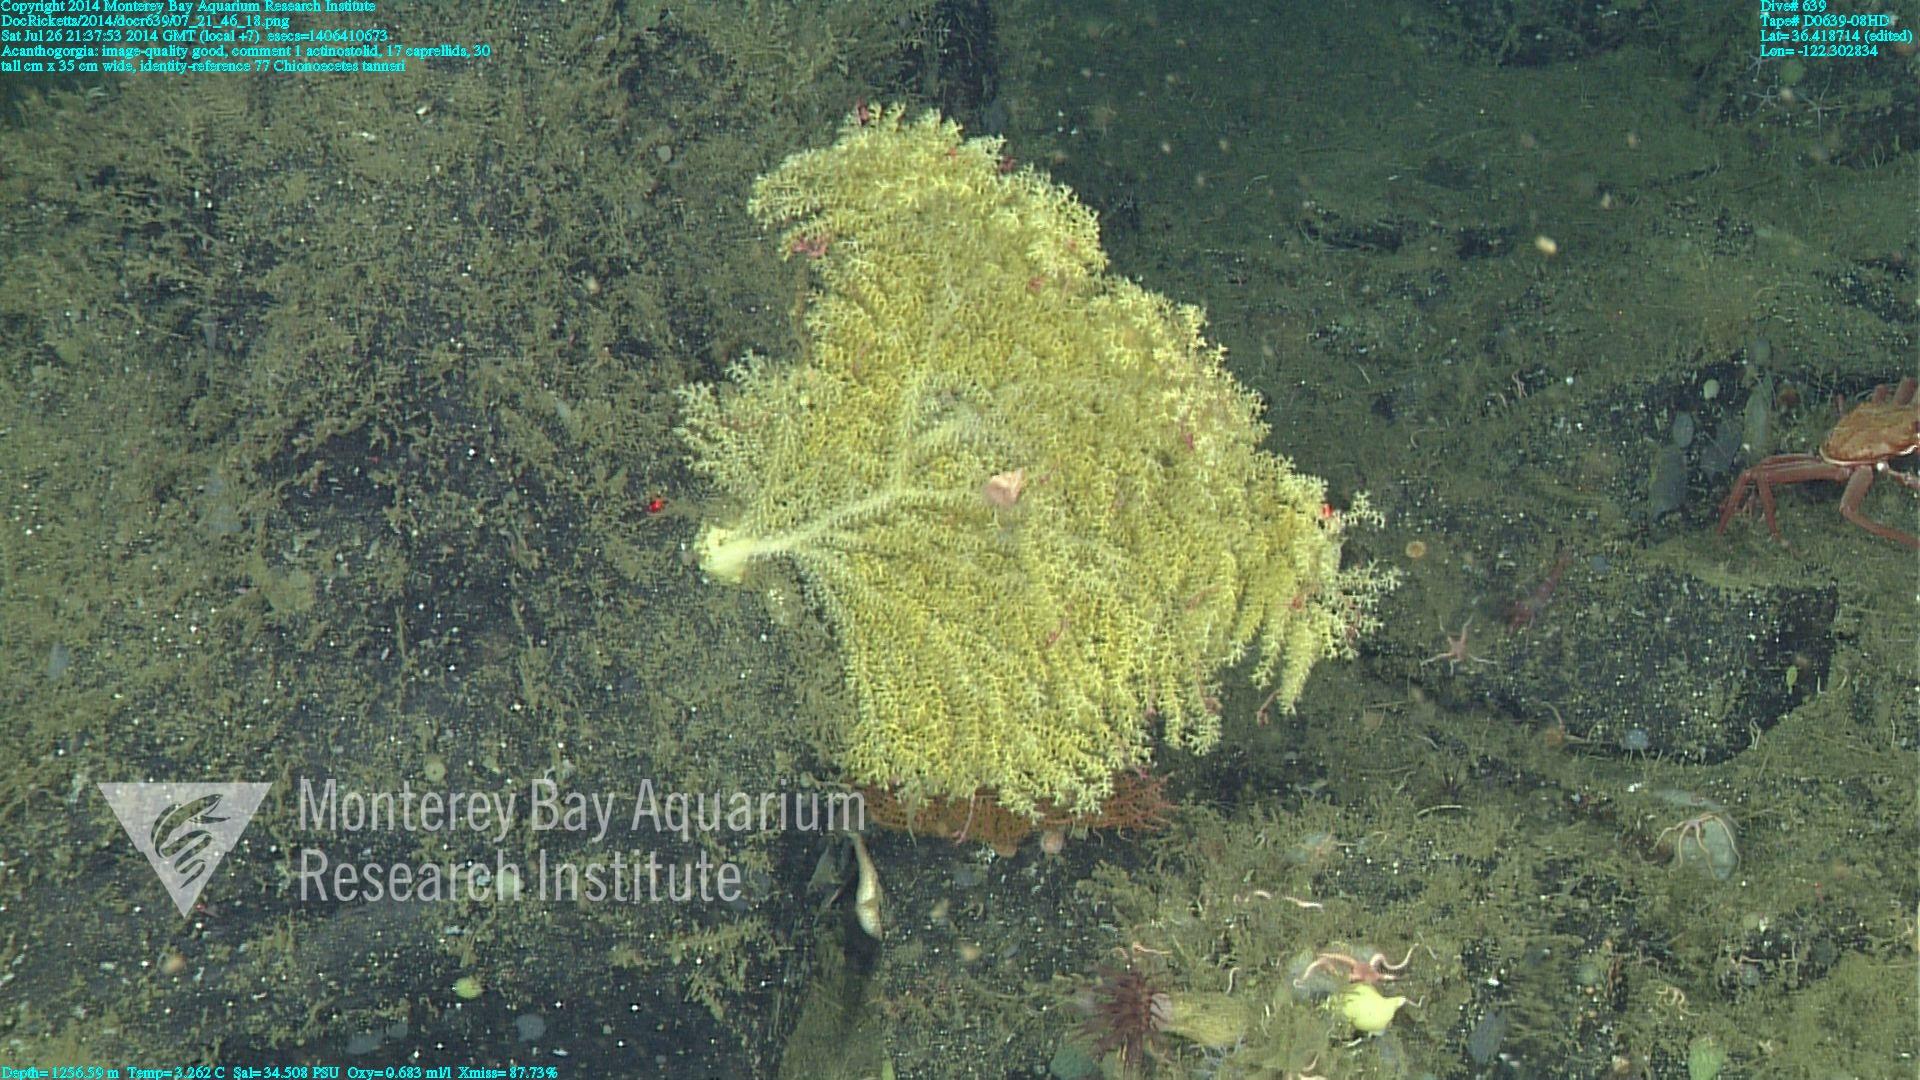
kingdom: Animalia
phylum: Cnidaria
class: Anthozoa
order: Malacalcyonacea
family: Paramuriceidae
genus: Acanthogorgia
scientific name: Acanthogorgia
